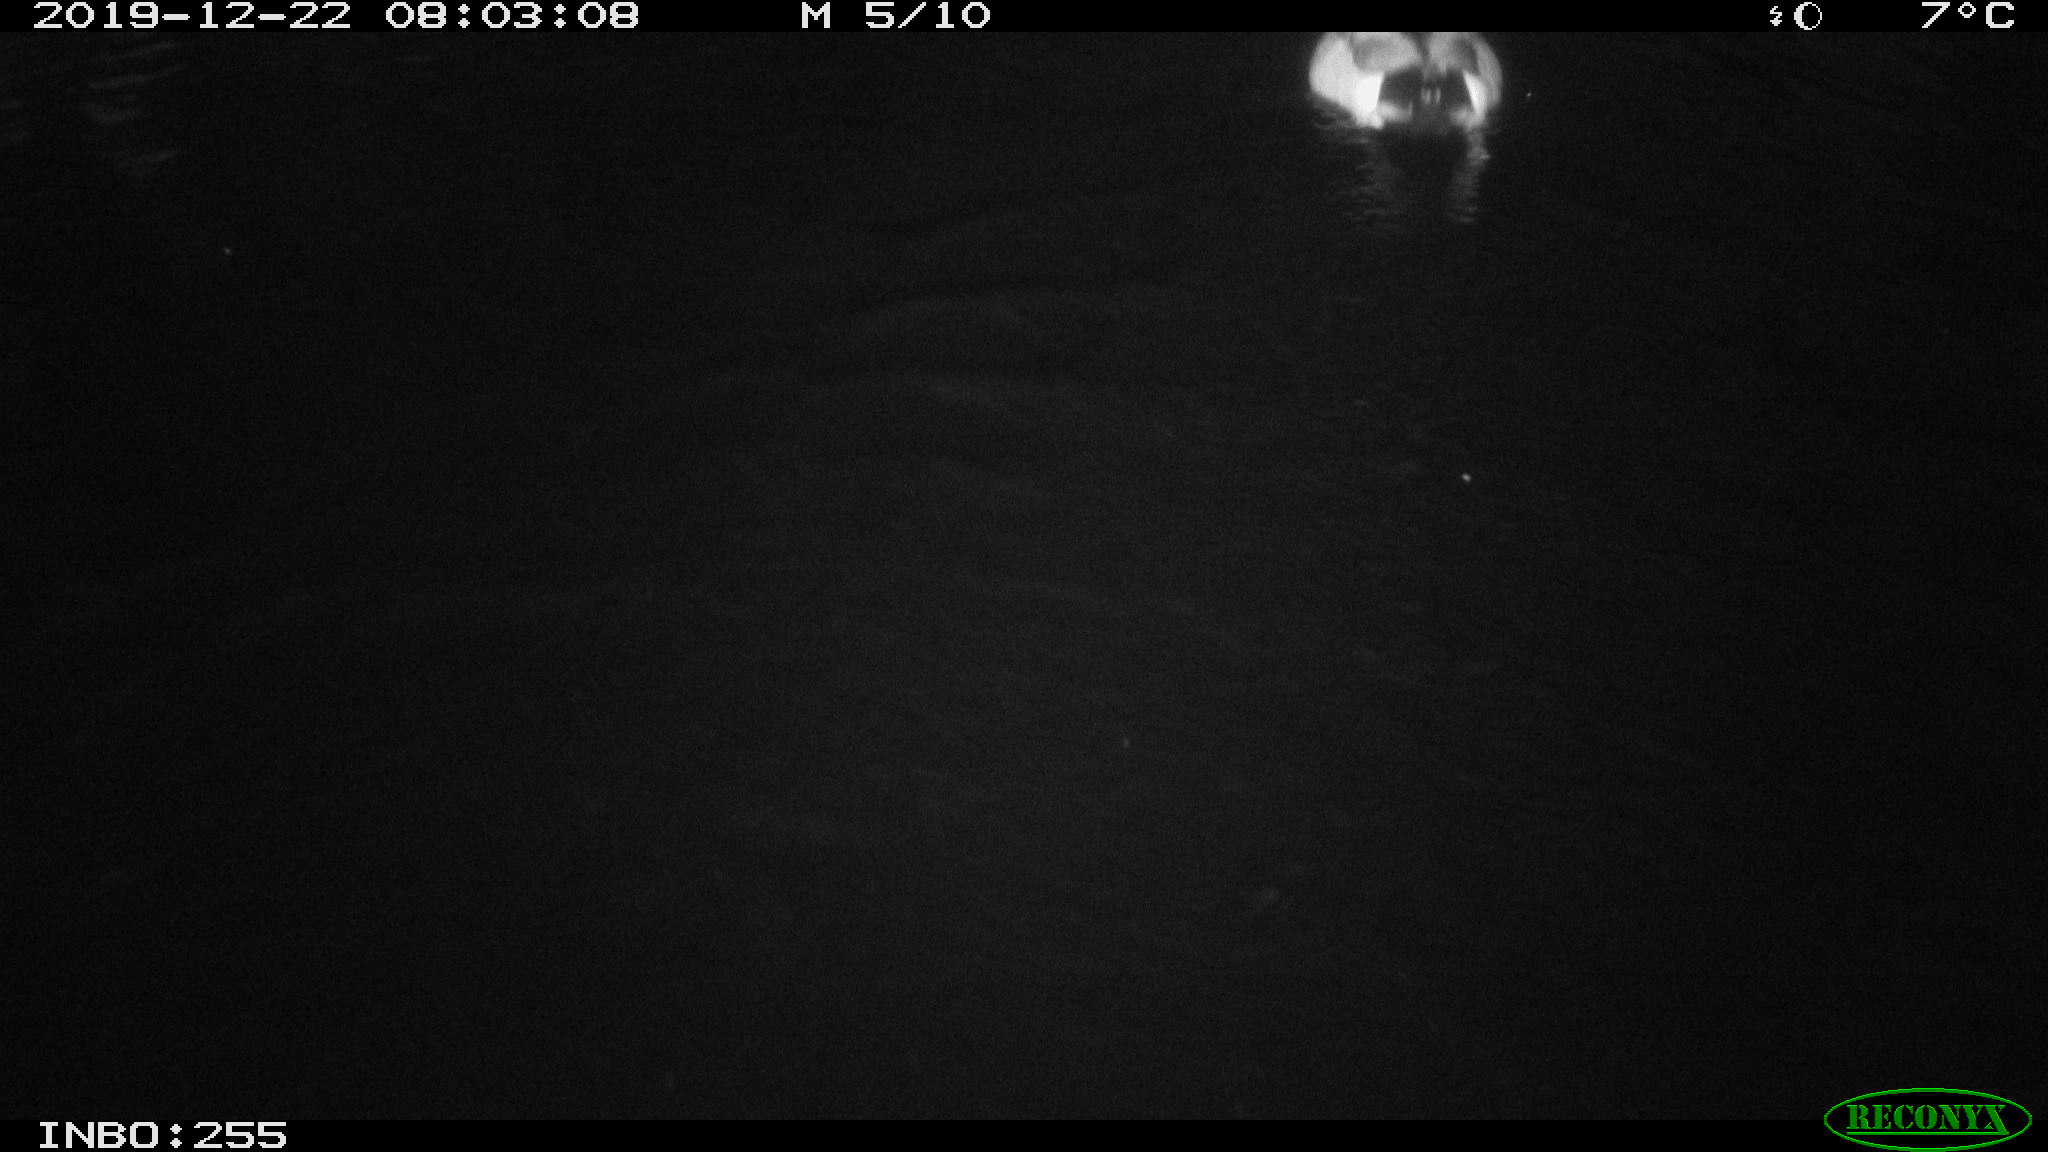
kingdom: Animalia
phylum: Chordata
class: Aves
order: Anseriformes
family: Anatidae
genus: Anas
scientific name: Anas platyrhynchos
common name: Mallard
